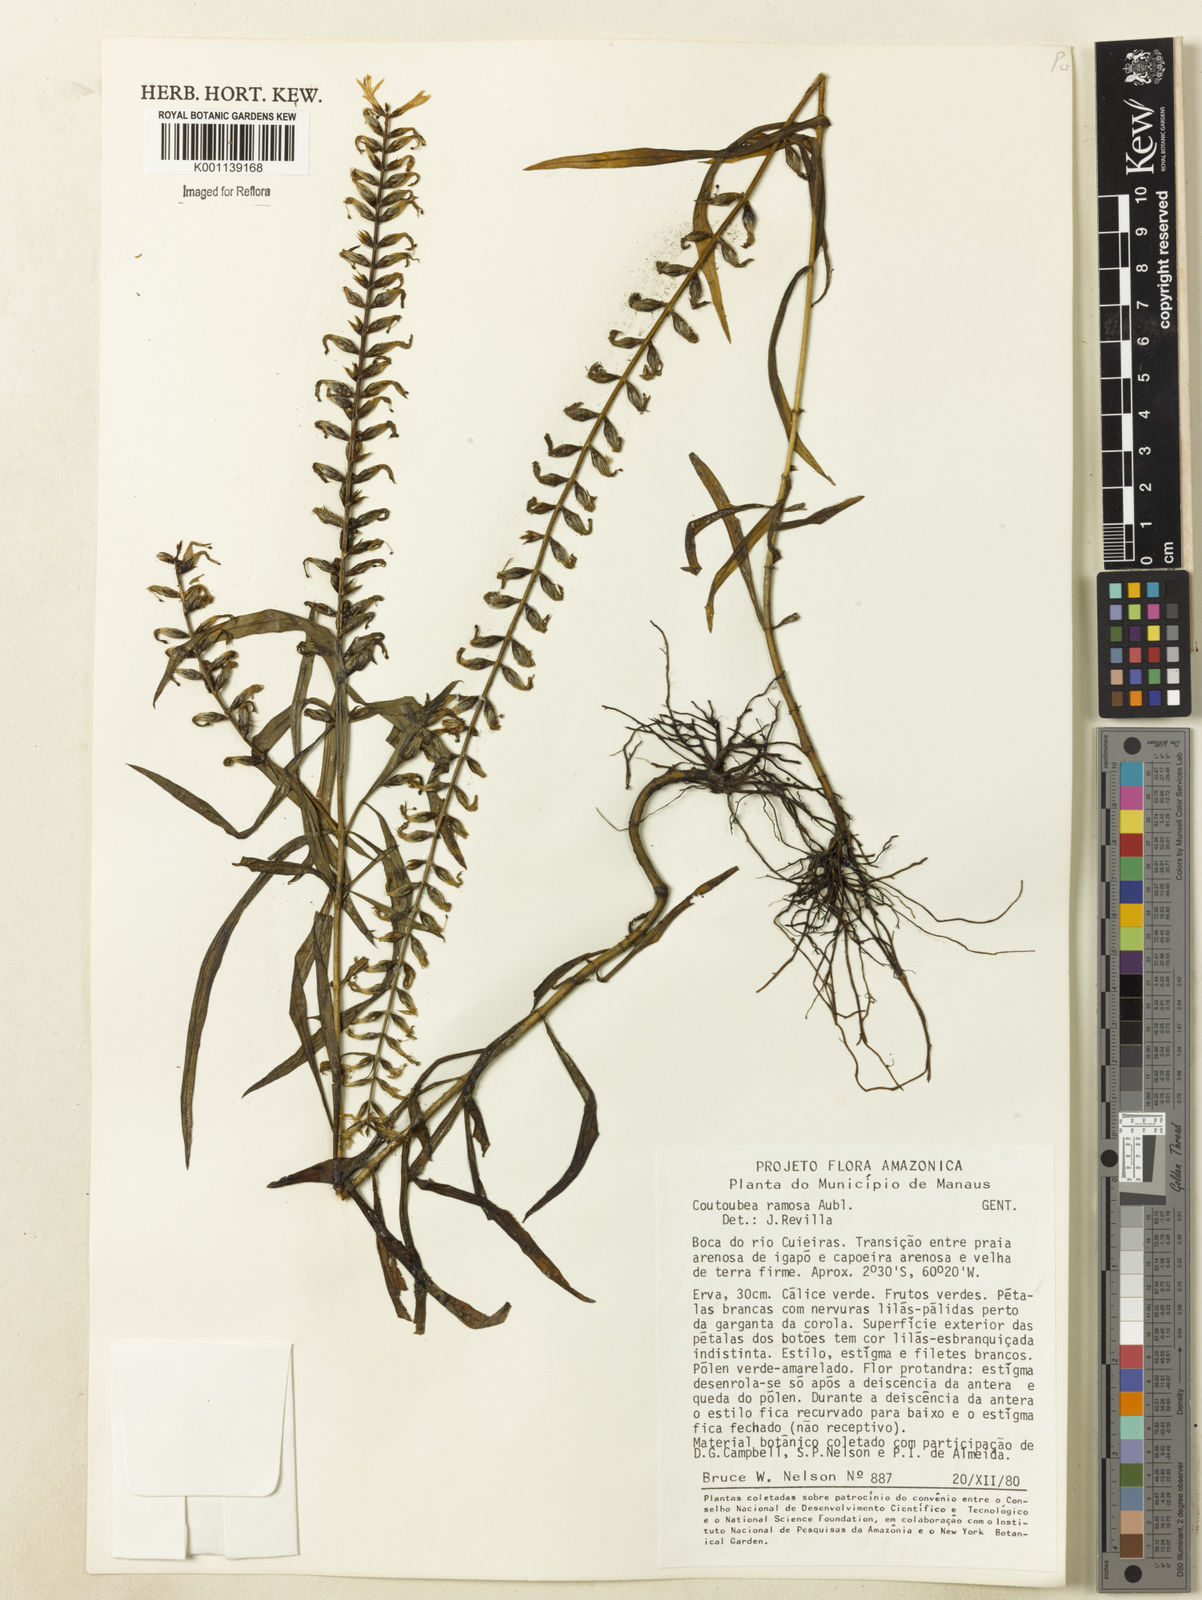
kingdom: Plantae
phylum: Tracheophyta
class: Magnoliopsida
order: Gentianales
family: Gentianaceae
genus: Coutoubea
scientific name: Coutoubea ramosa
